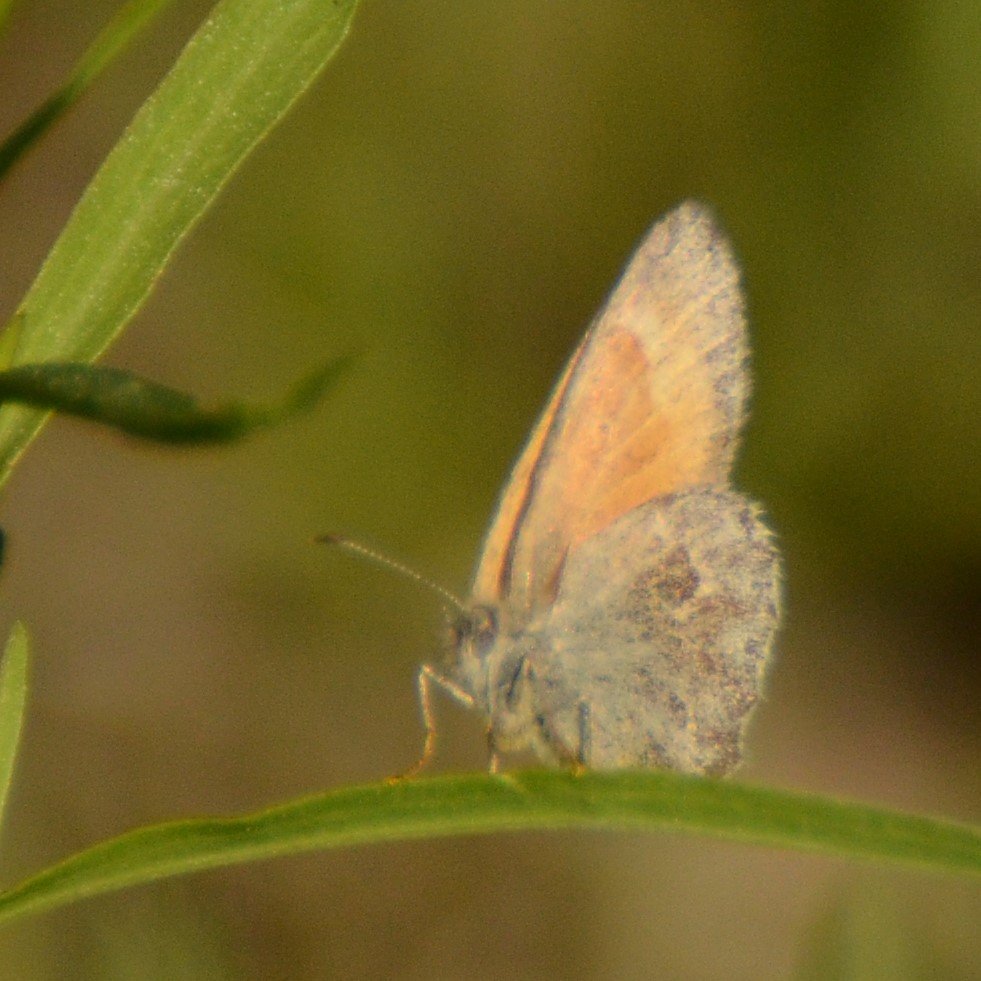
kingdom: Animalia
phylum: Arthropoda
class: Insecta
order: Lepidoptera
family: Nymphalidae
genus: Coenonympha
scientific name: Coenonympha tullia
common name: Large Heath
